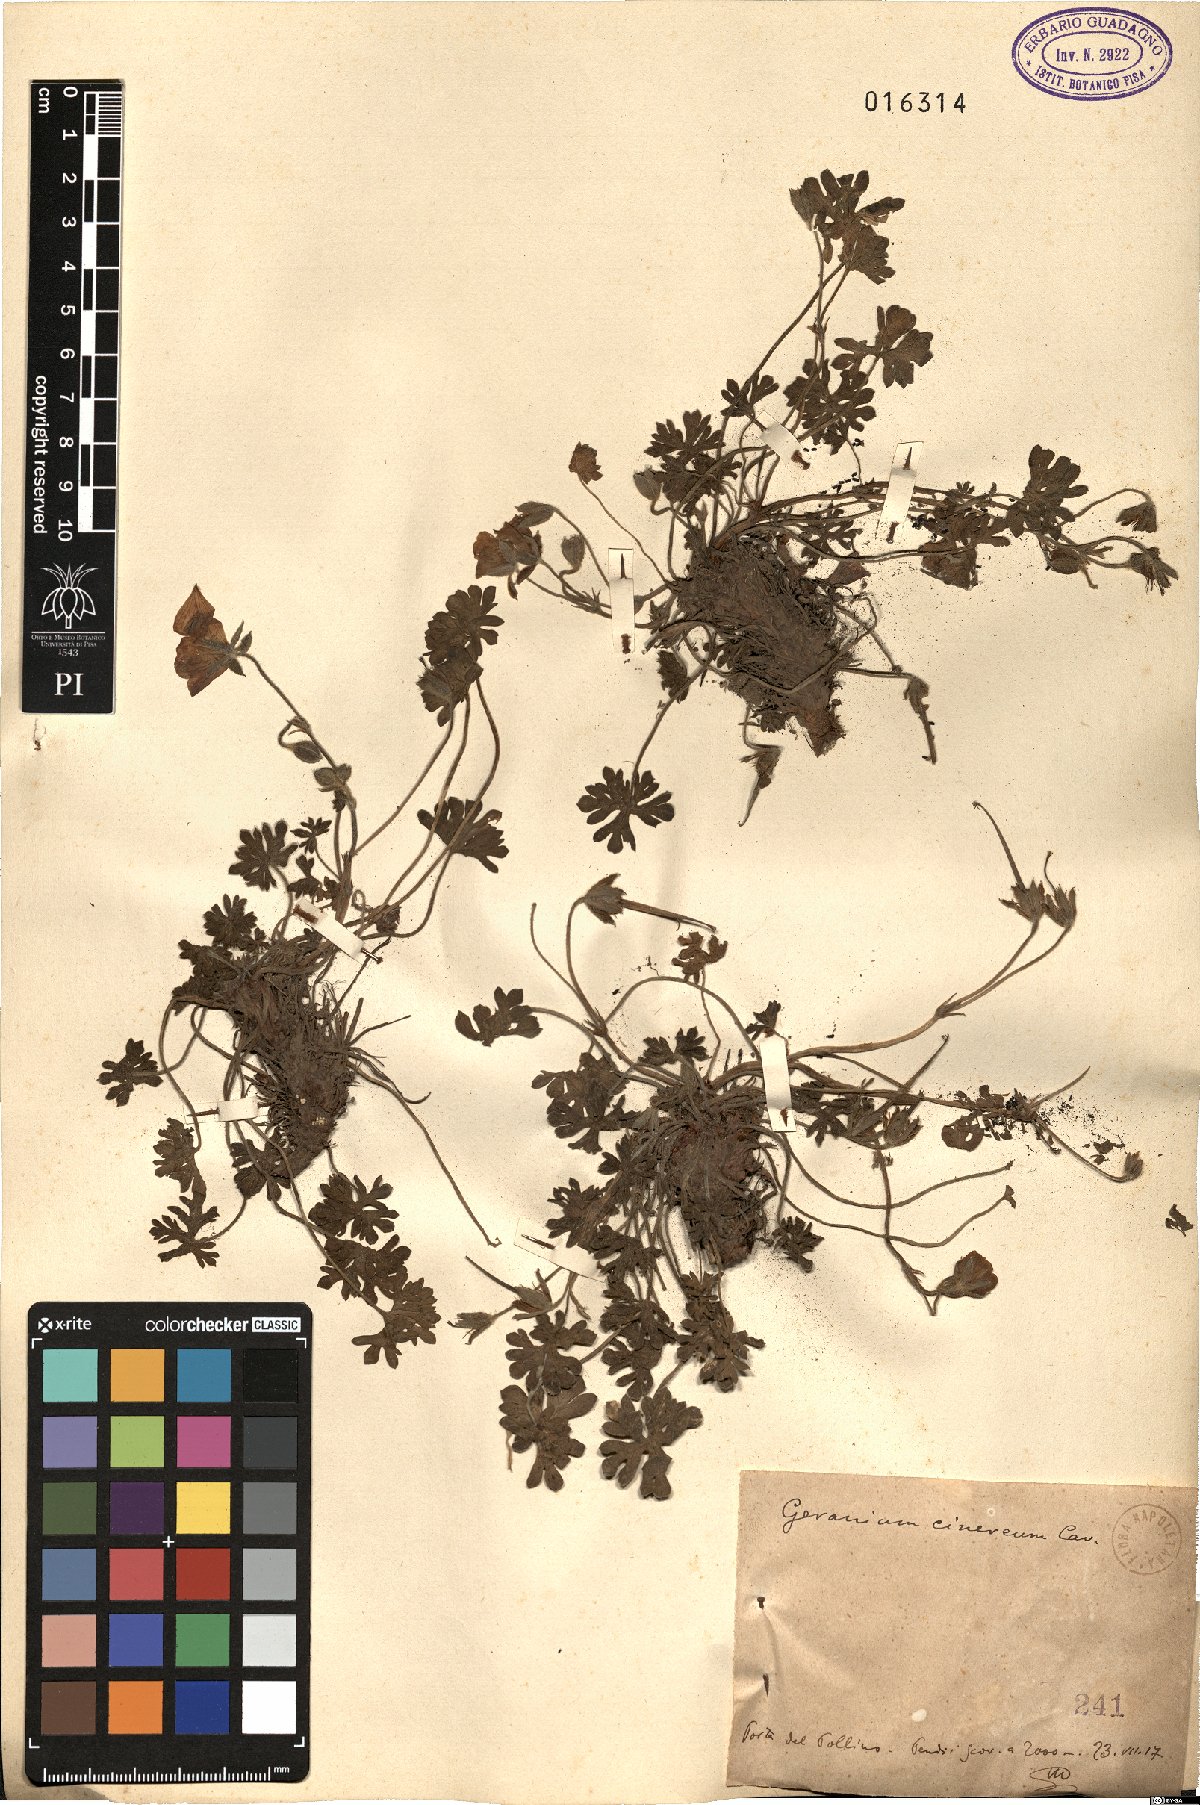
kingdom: Plantae
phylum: Tracheophyta
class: Magnoliopsida
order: Geraniales
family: Geraniaceae
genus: Geranium
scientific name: Geranium cinereum
